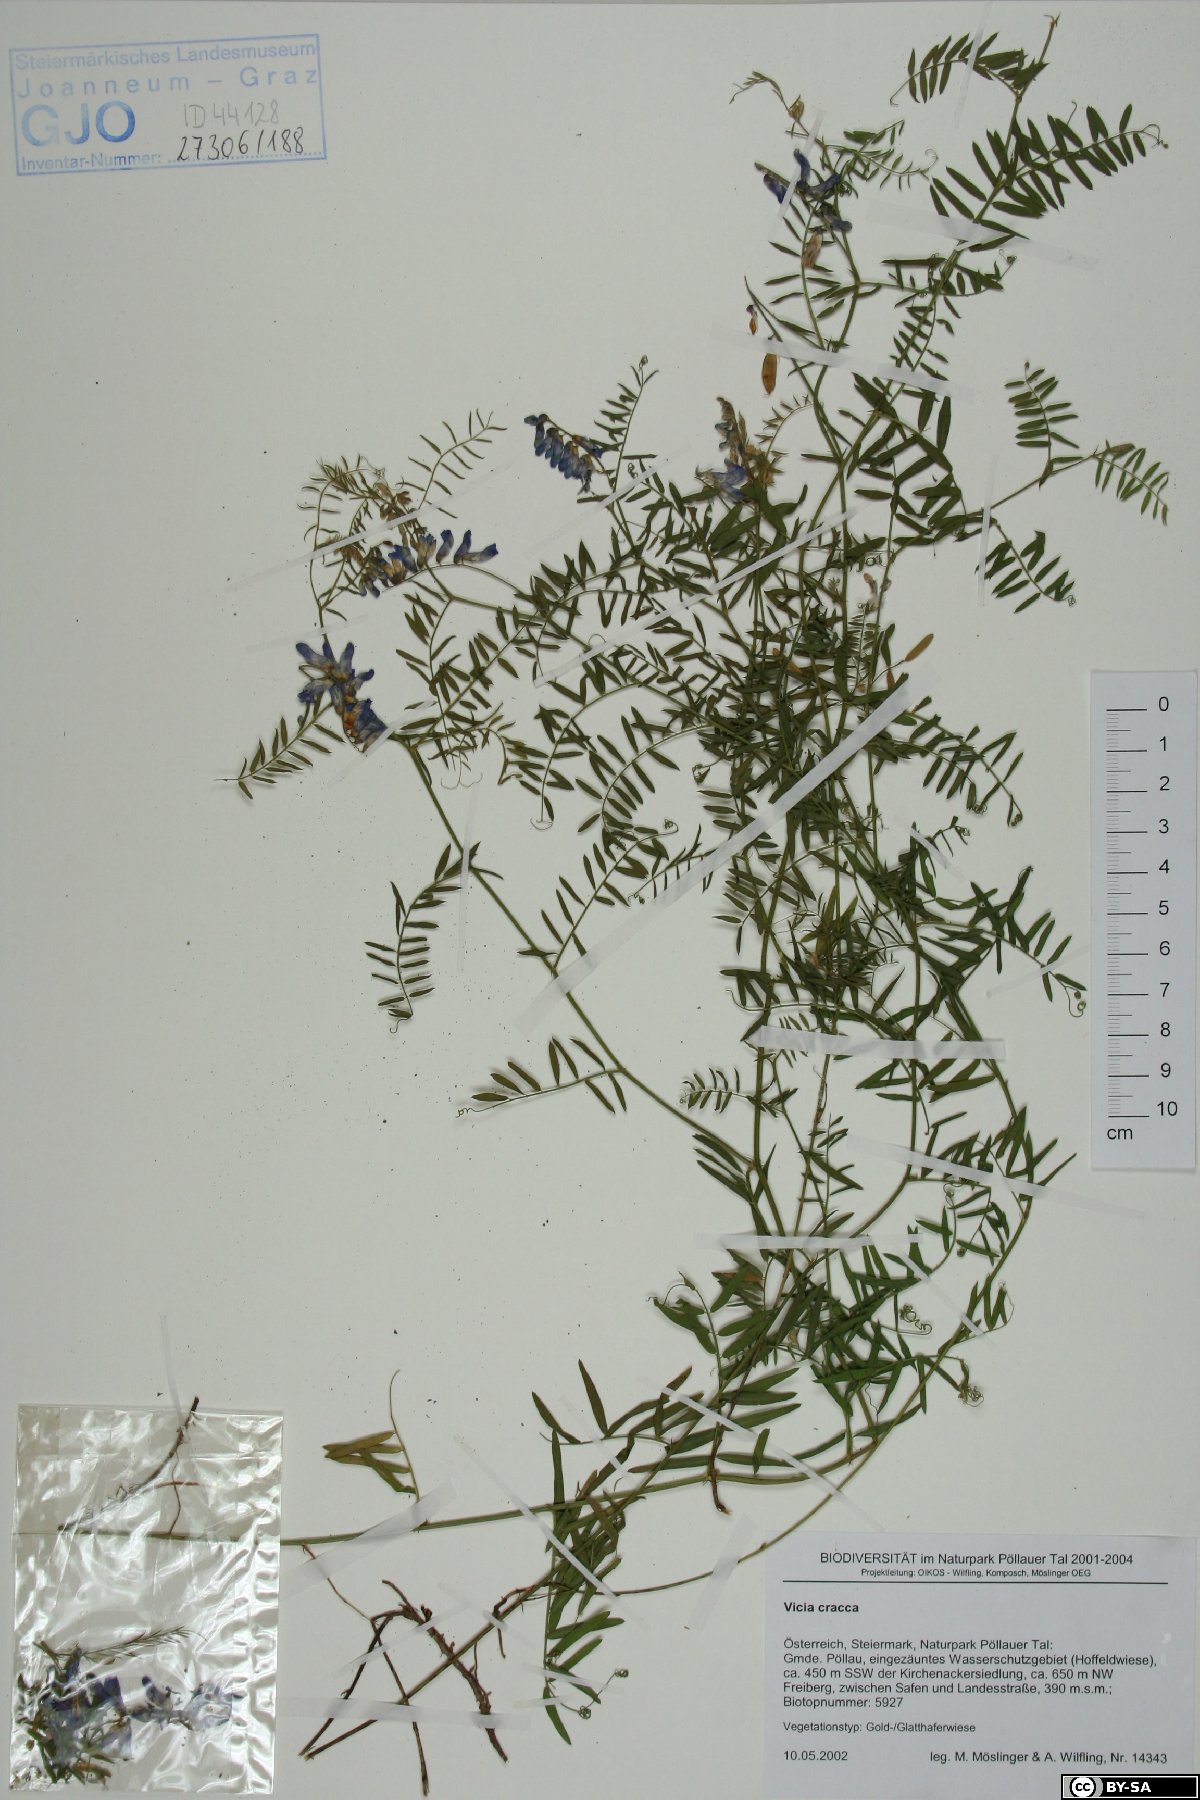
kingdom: Plantae
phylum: Tracheophyta
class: Magnoliopsida
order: Fabales
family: Fabaceae
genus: Vicia
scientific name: Vicia cracca
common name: Bird vetch
